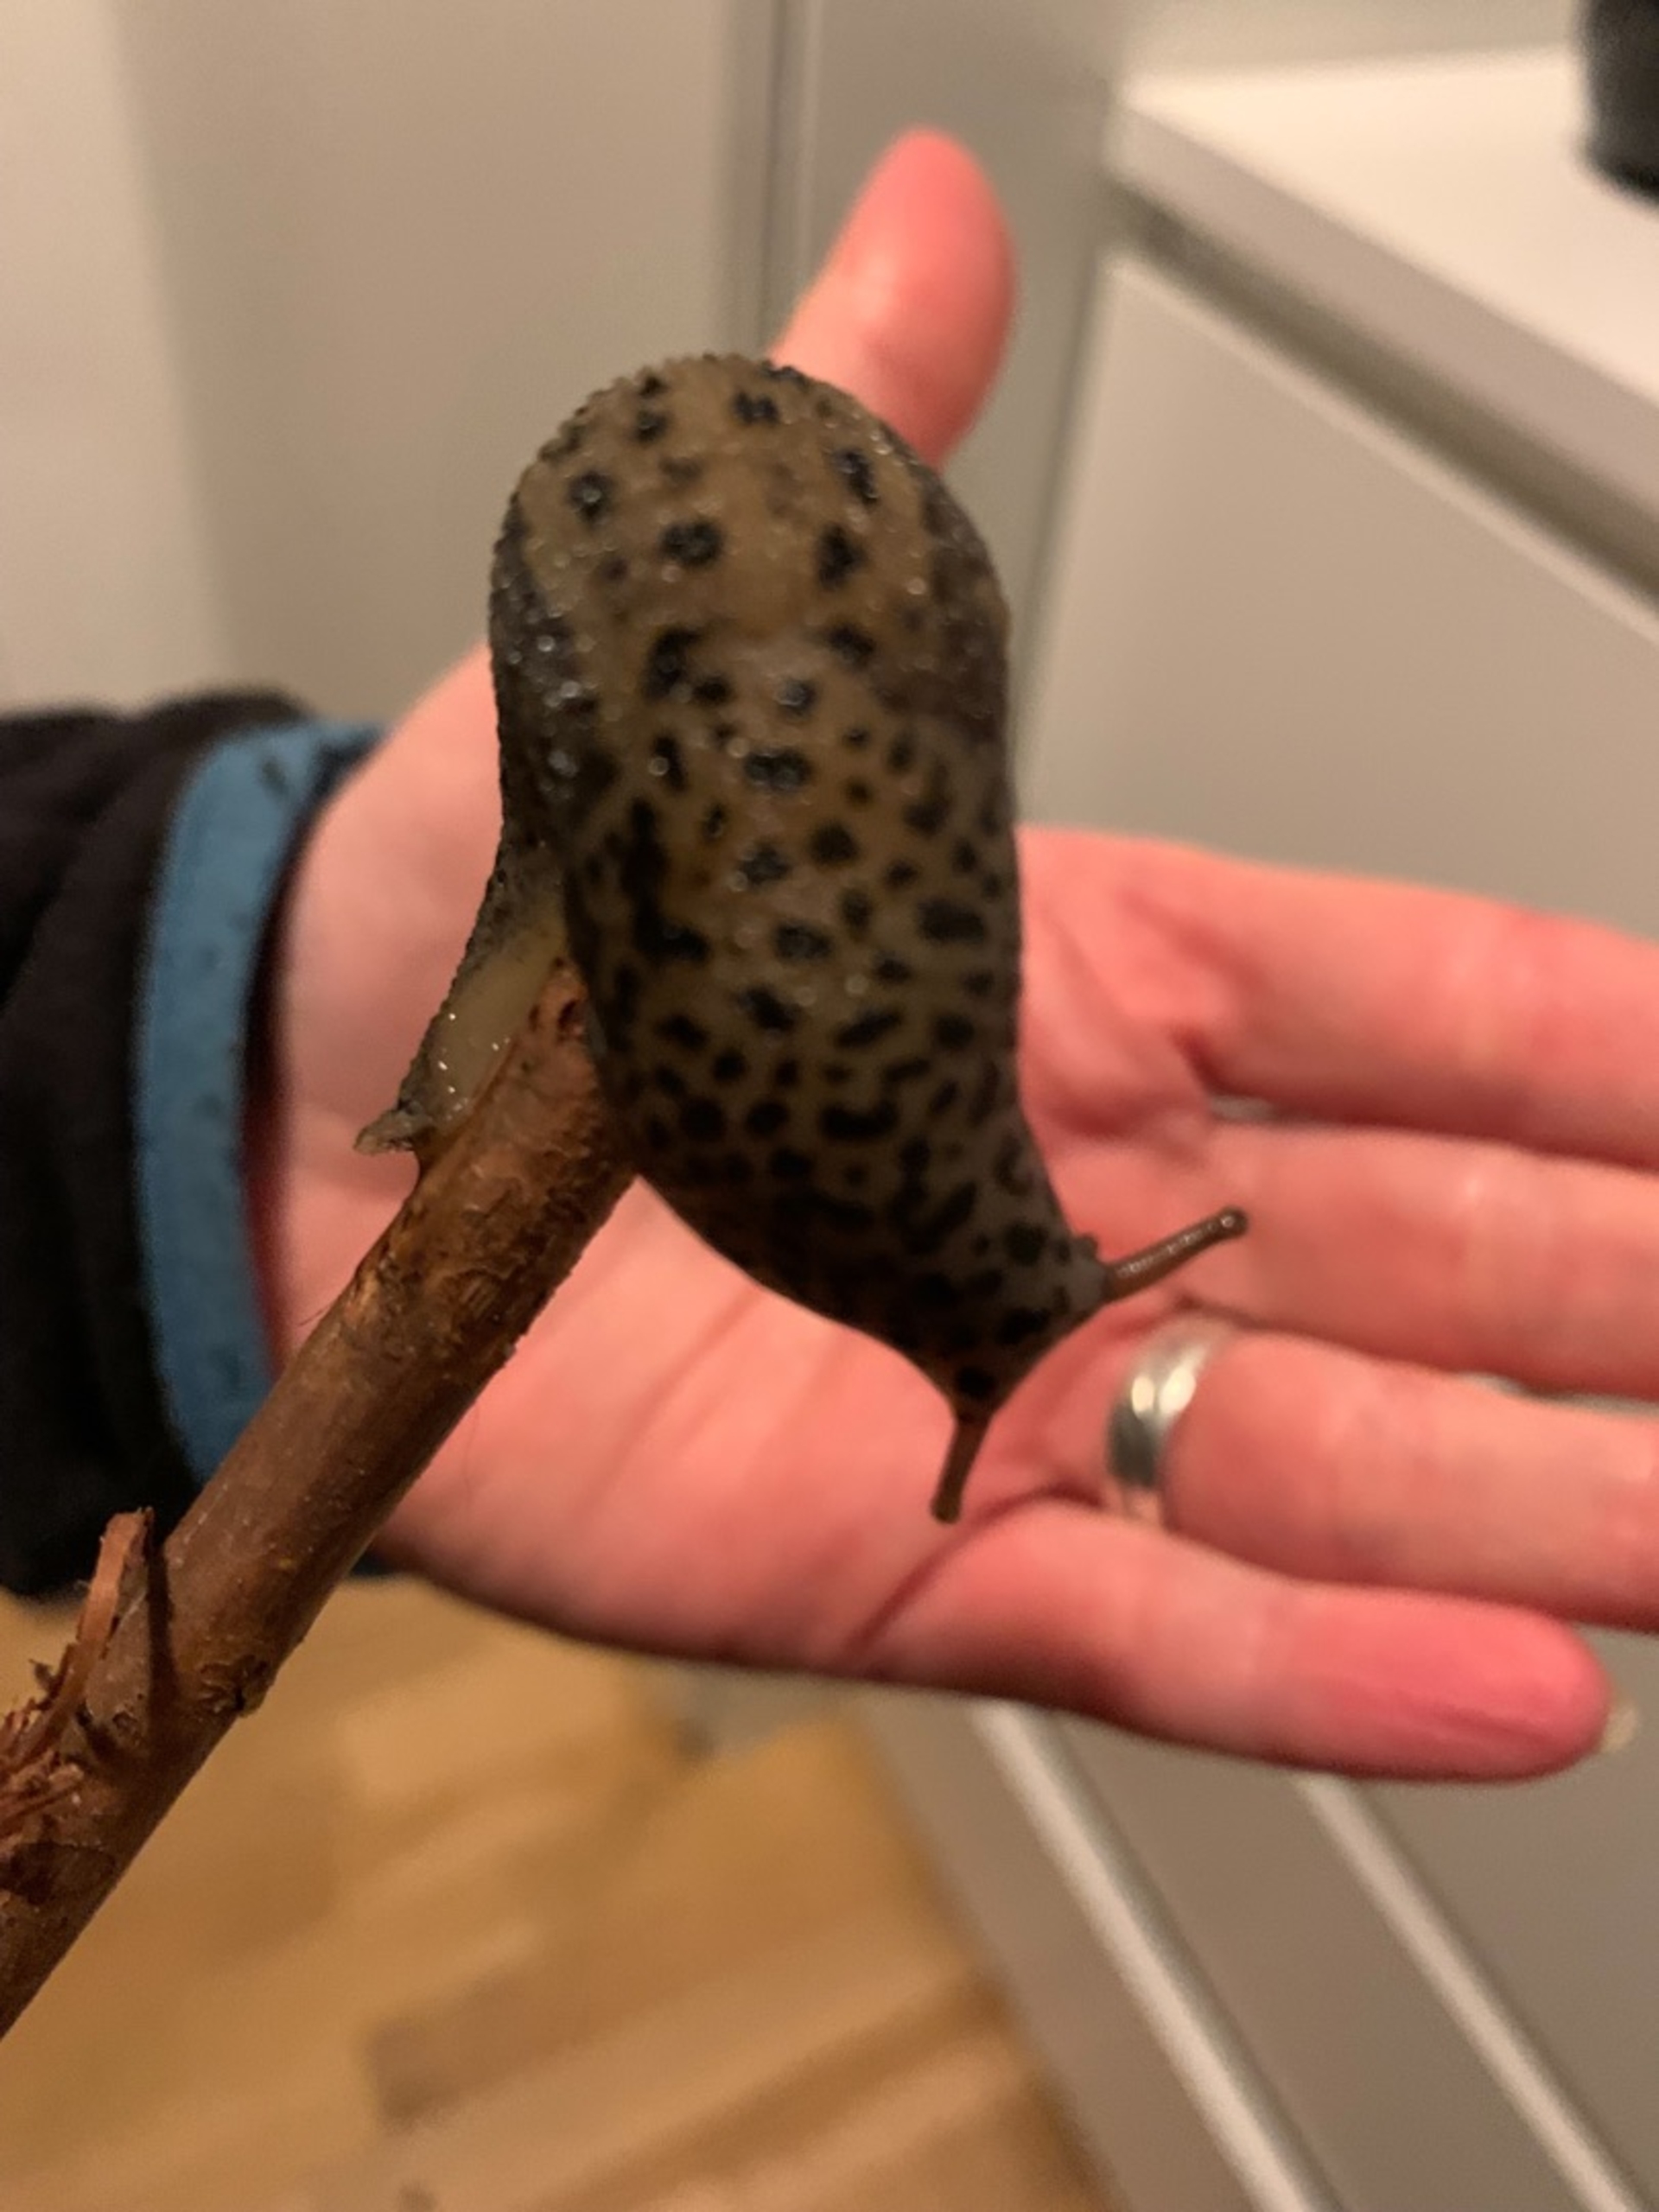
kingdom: Animalia
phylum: Mollusca
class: Gastropoda
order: Stylommatophora
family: Limacidae
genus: Limax
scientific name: Limax maximus
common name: Pantersnegl
